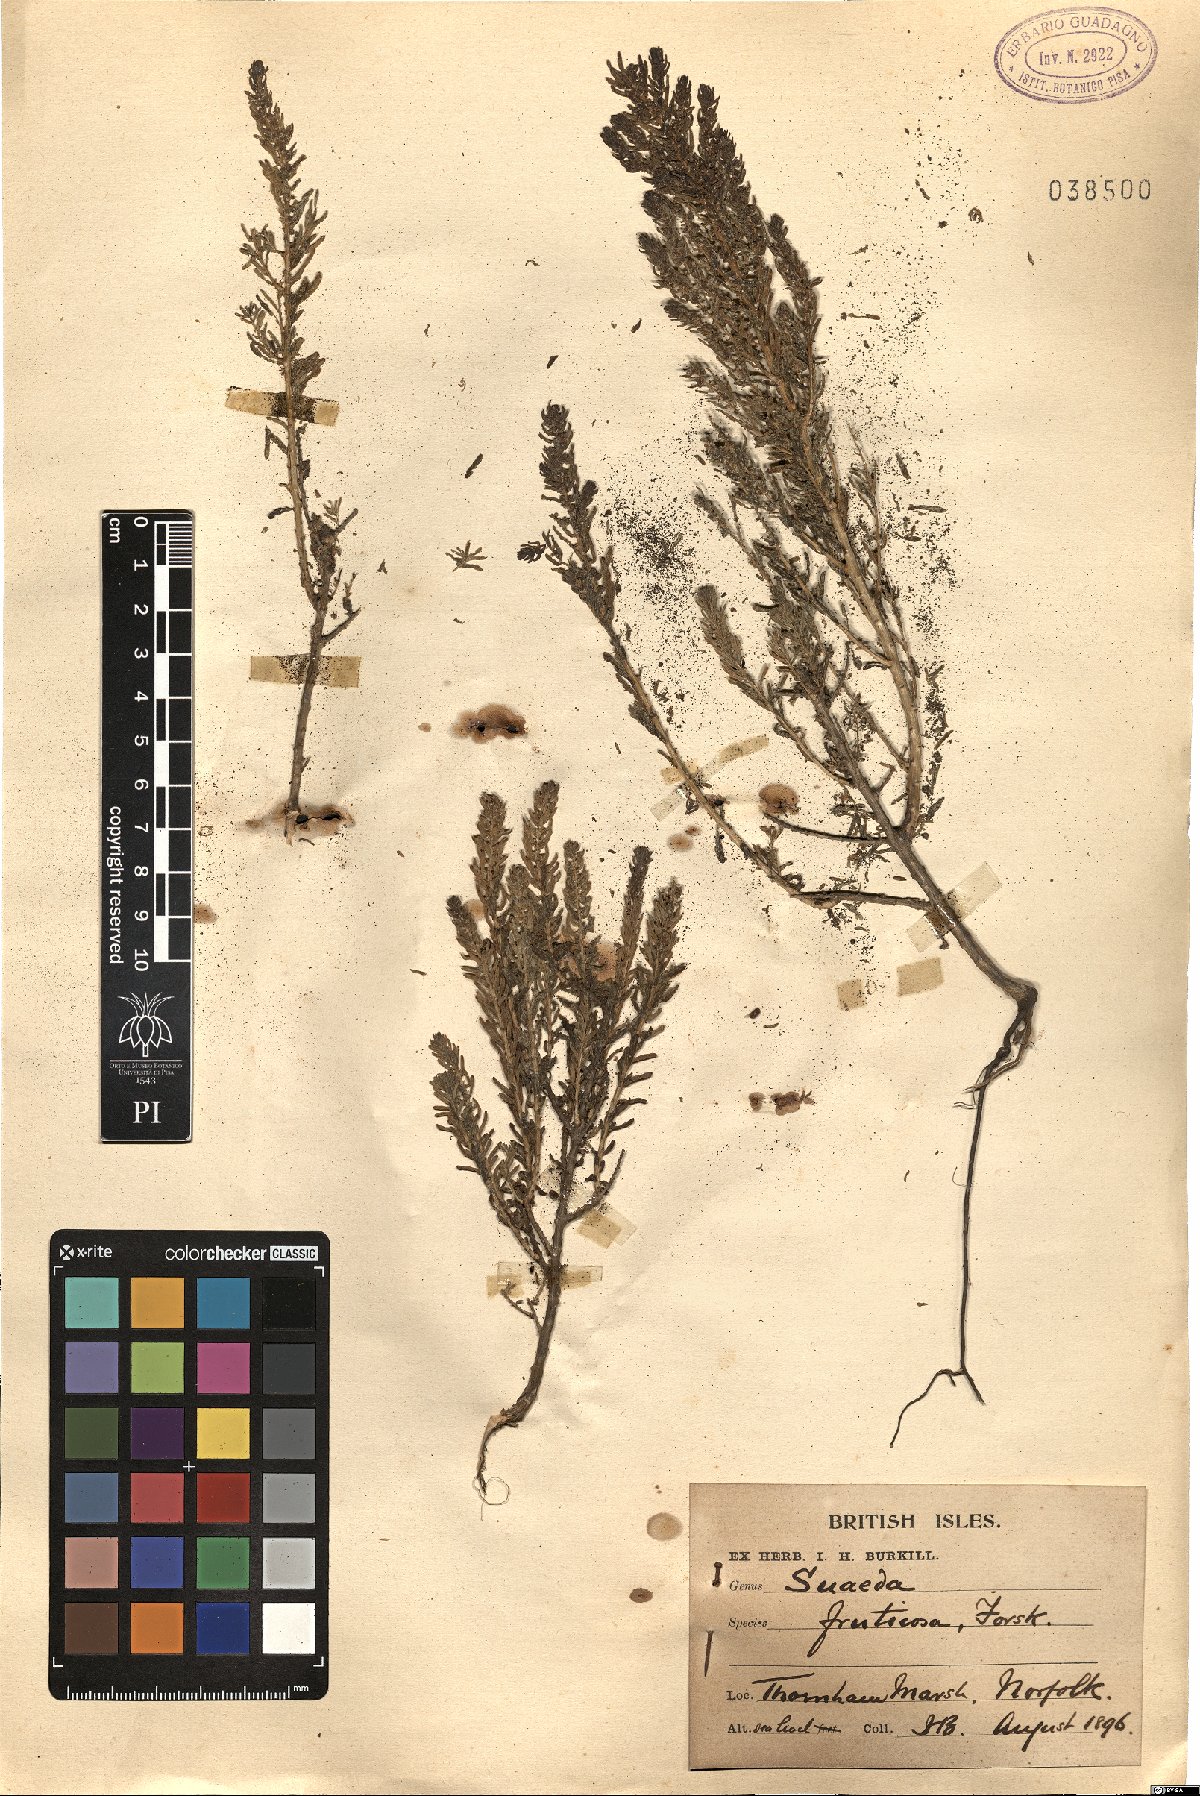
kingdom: Plantae
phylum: Tracheophyta
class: Magnoliopsida
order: Caryophyllales
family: Amaranthaceae
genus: Suaeda
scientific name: Suaeda fruticosa
